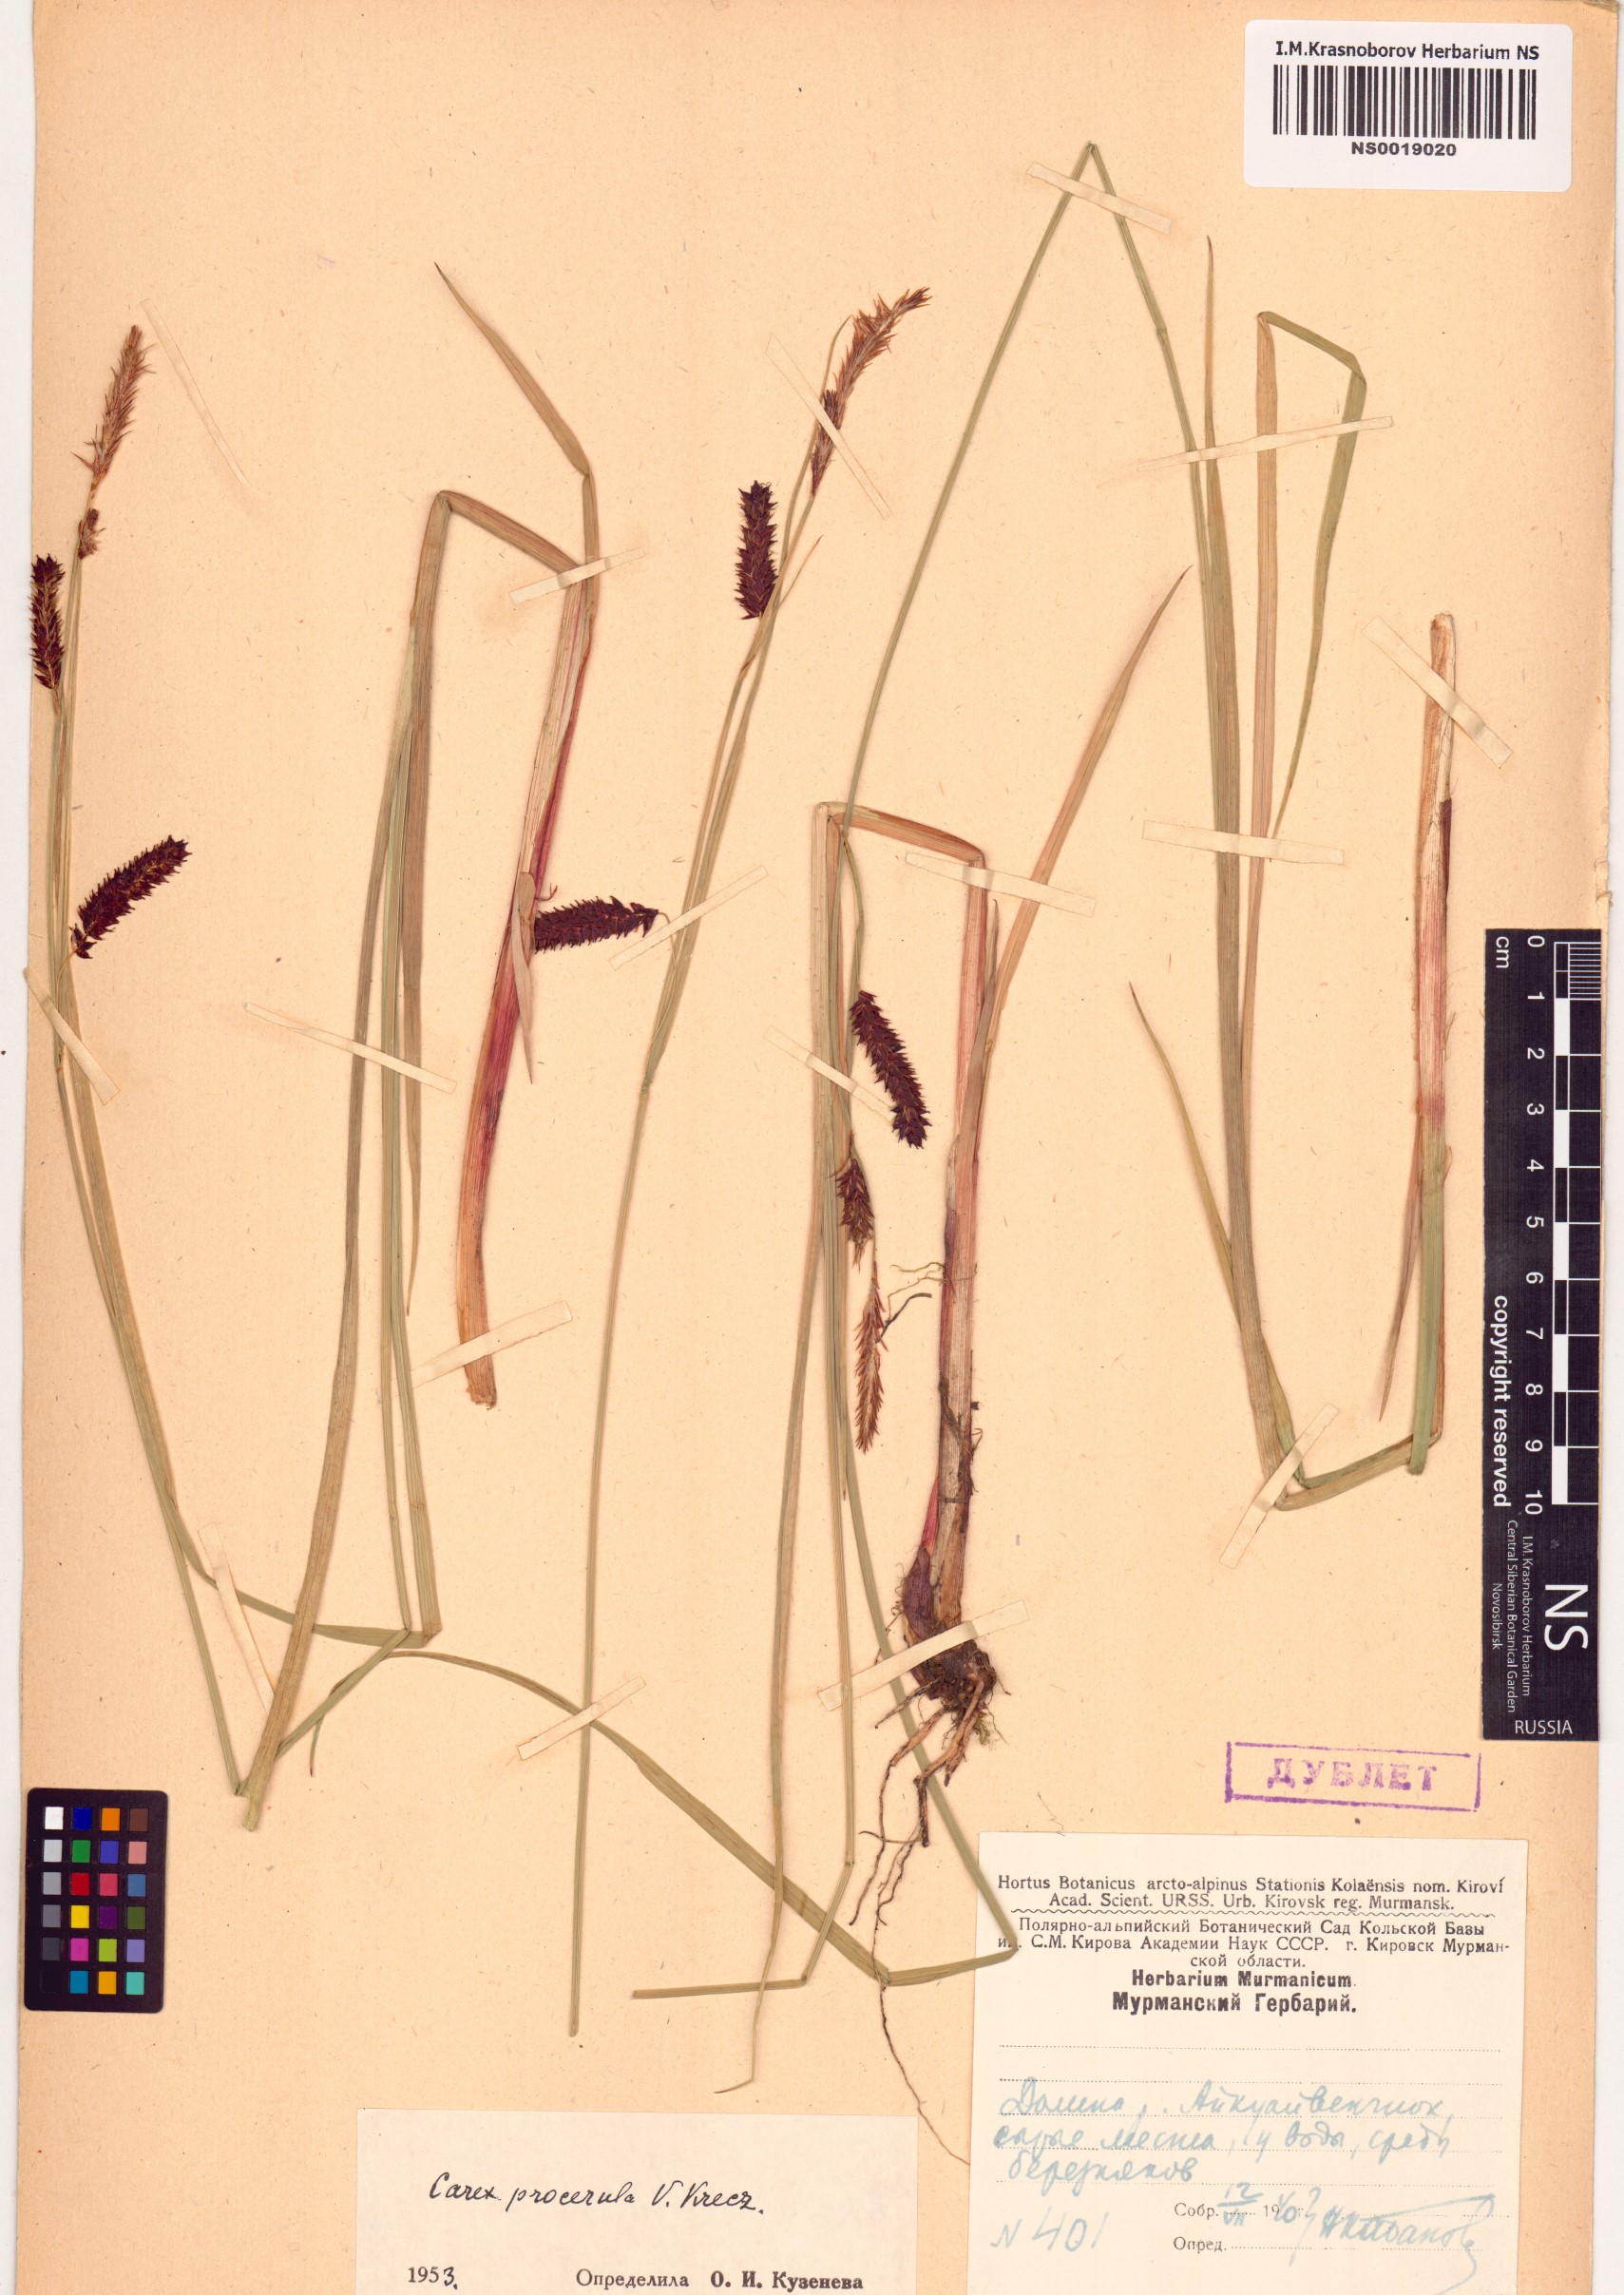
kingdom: Plantae
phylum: Tracheophyta
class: Liliopsida
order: Poales
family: Cyperaceae
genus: Carex
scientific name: Carex saxatilis
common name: Russet sedge
